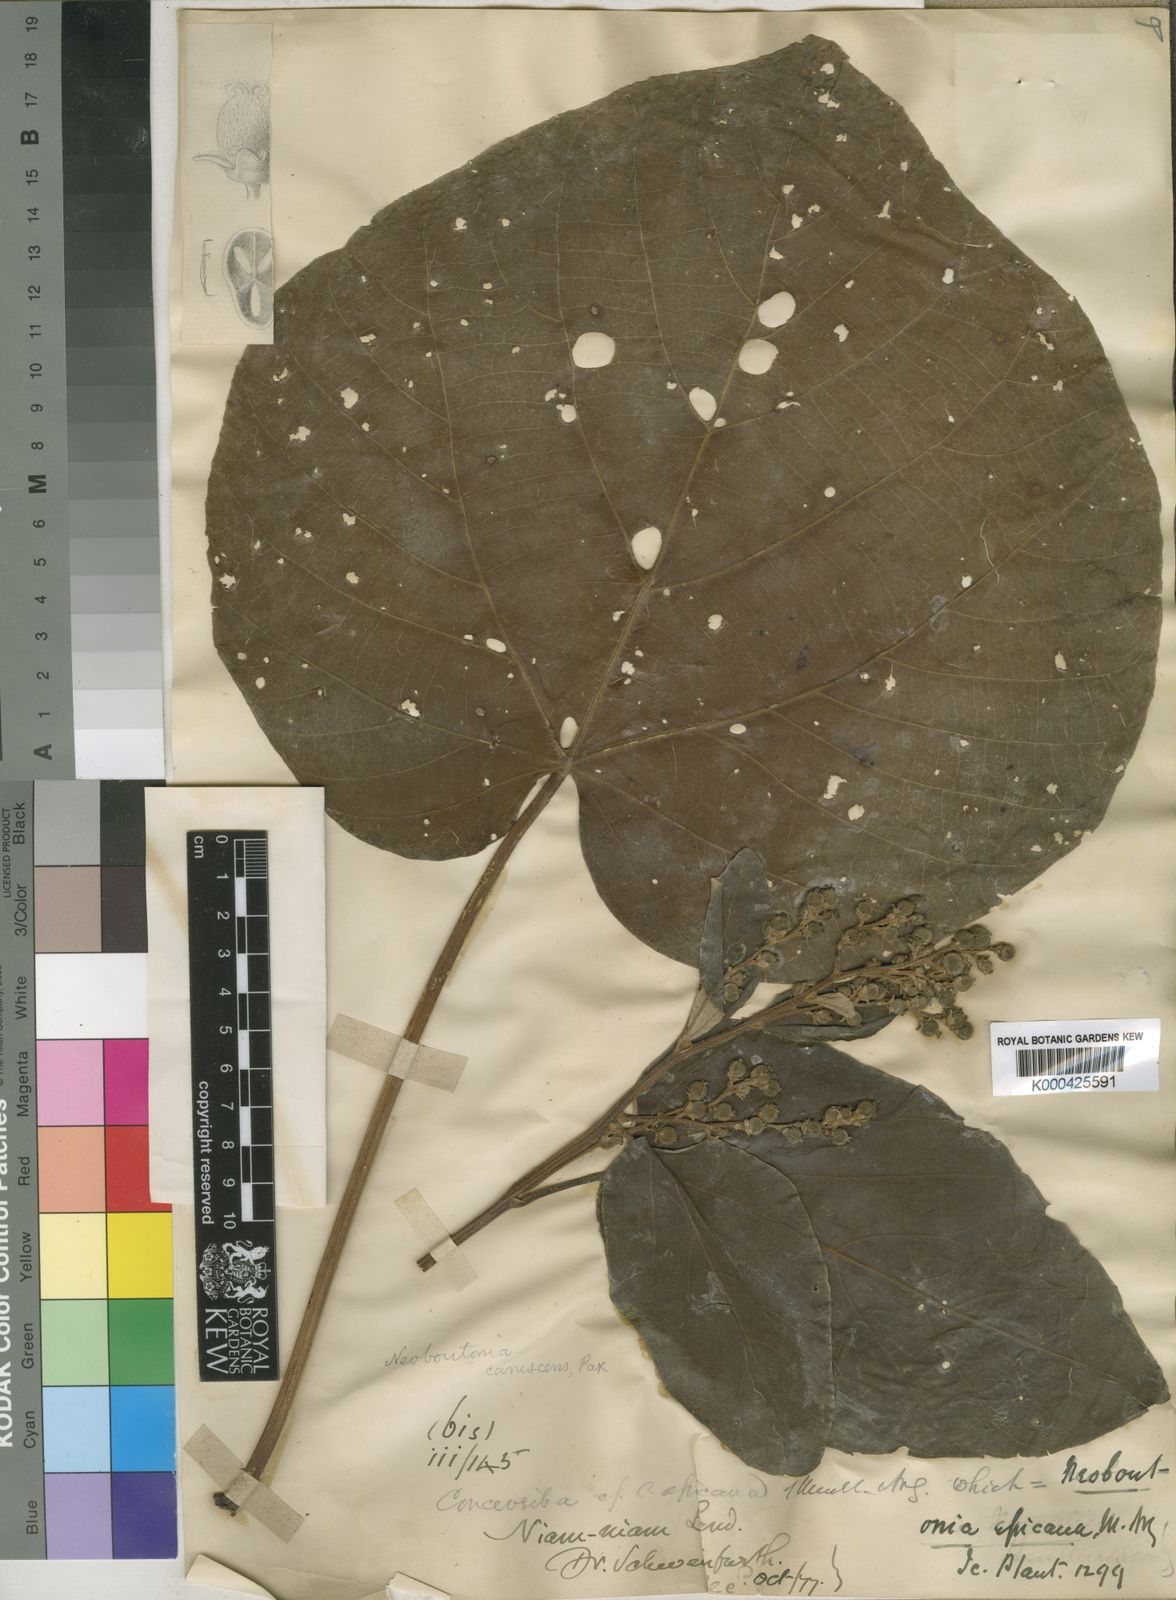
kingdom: Plantae
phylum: Tracheophyta
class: Magnoliopsida
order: Malpighiales
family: Euphorbiaceae
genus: Neoboutonia
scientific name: Neoboutonia melleri
